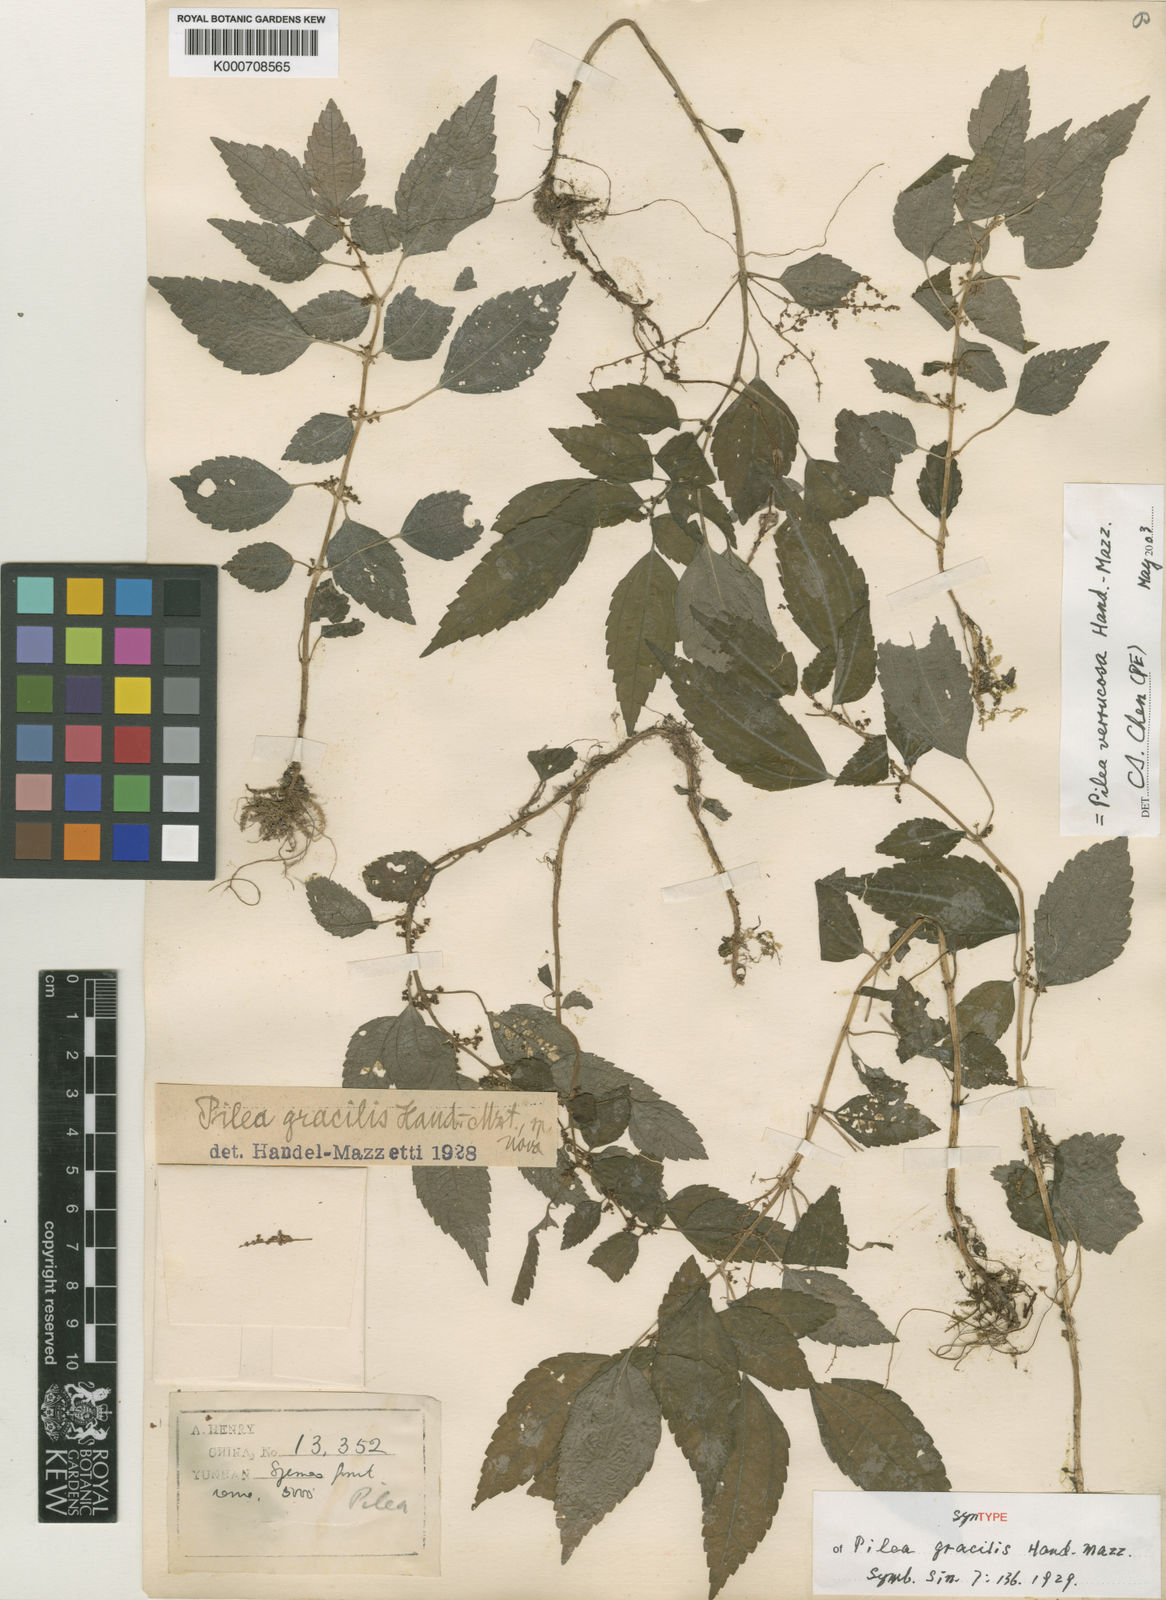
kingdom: Plantae
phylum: Tracheophyta
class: Magnoliopsida
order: Rosales
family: Urticaceae
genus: Pilea
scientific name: Pilea gracilis
